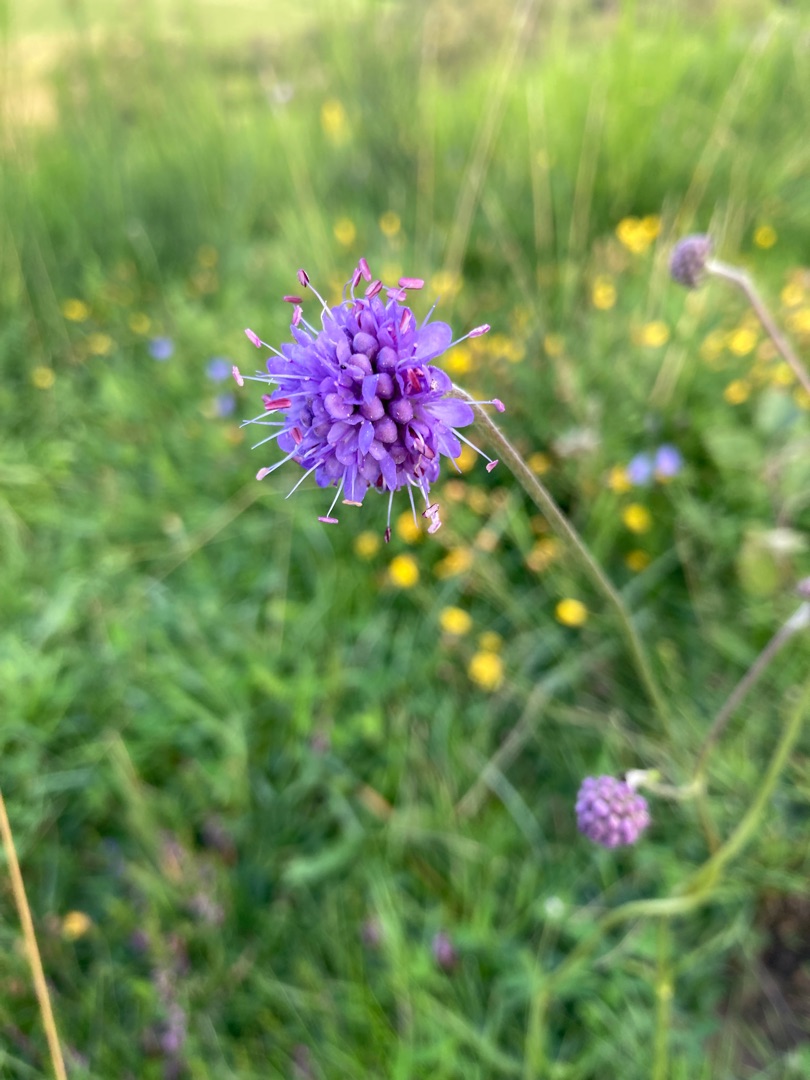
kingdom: Plantae
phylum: Tracheophyta
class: Magnoliopsida
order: Dipsacales
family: Caprifoliaceae
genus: Succisa
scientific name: Succisa pratensis
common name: Djævelsbid
